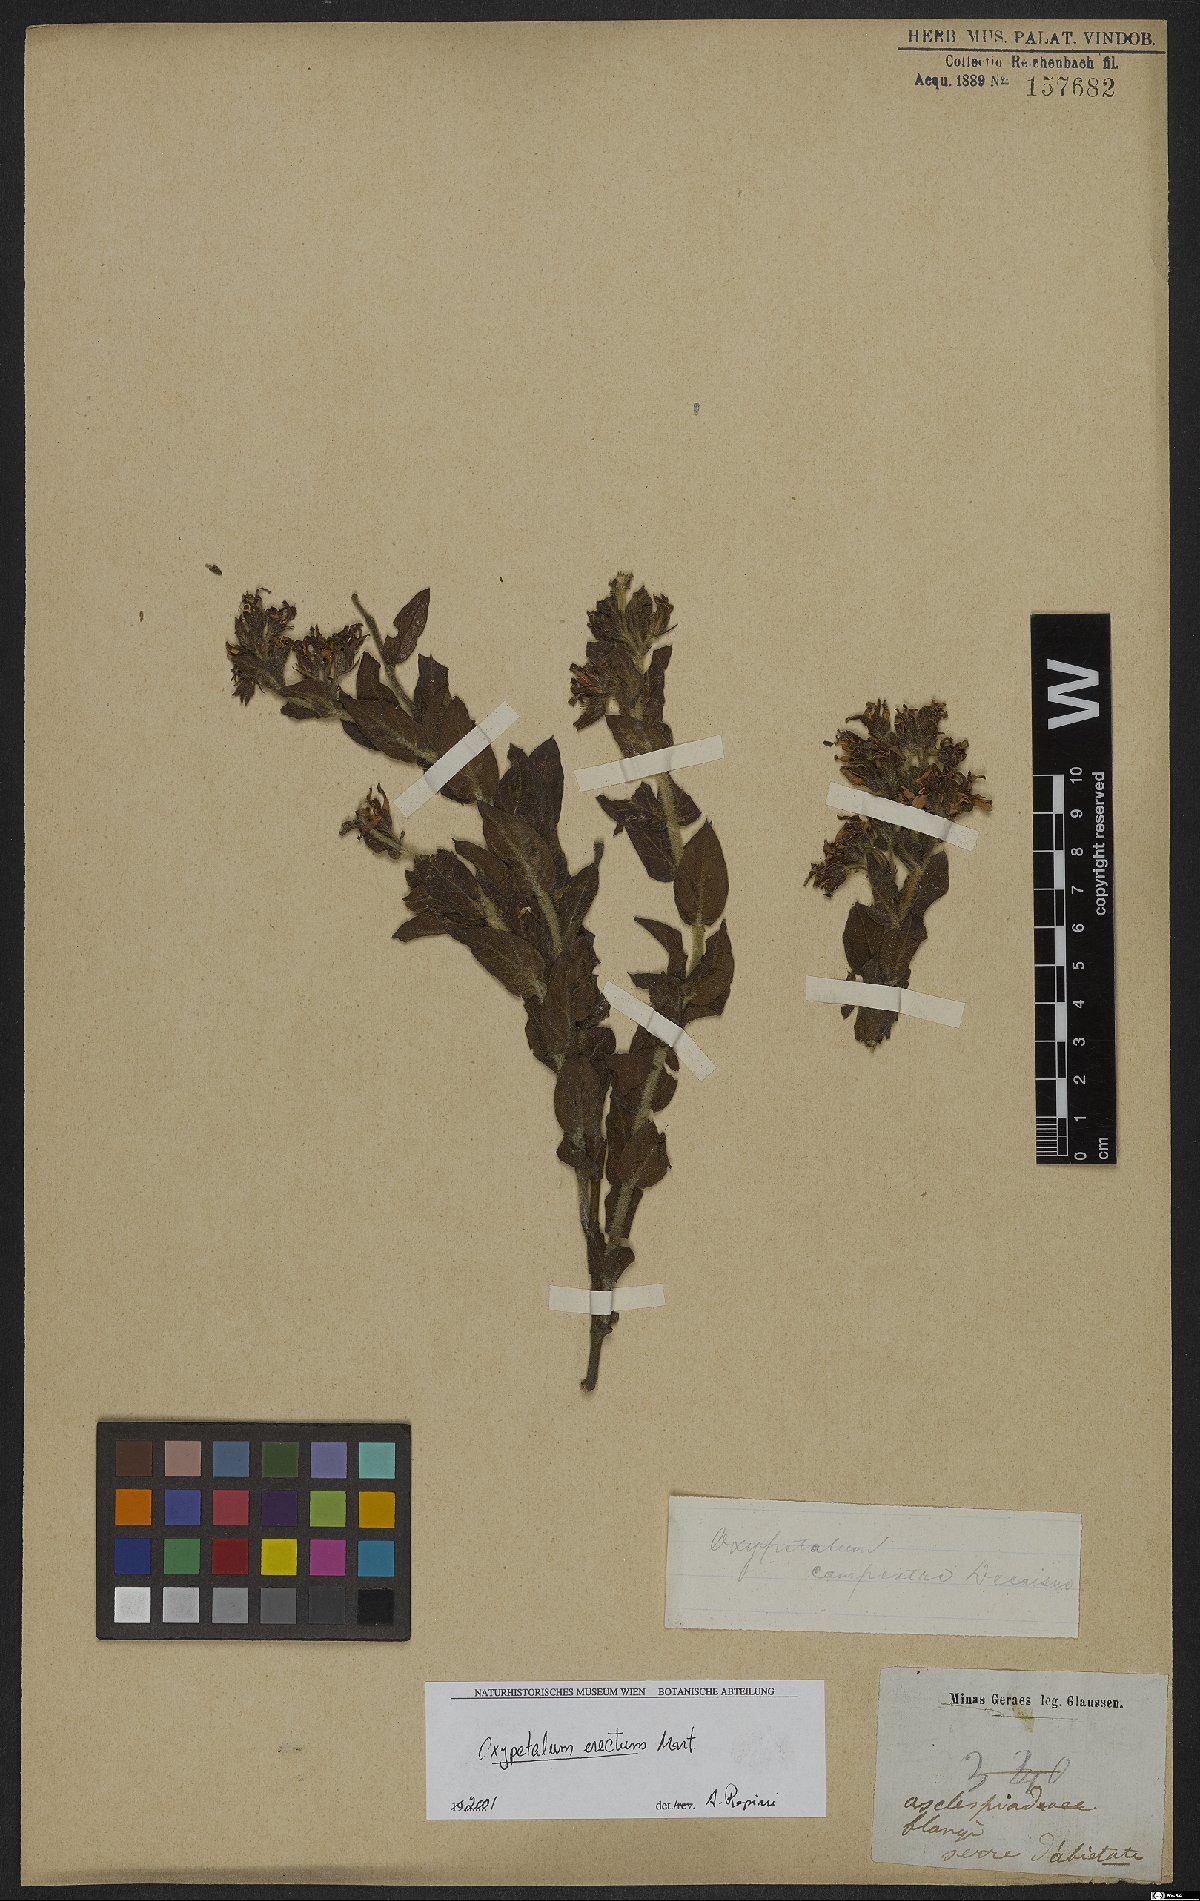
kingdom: Plantae
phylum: Tracheophyta
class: Magnoliopsida
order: Gentianales
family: Apocynaceae
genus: Oxypetalum
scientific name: Oxypetalum erectum
